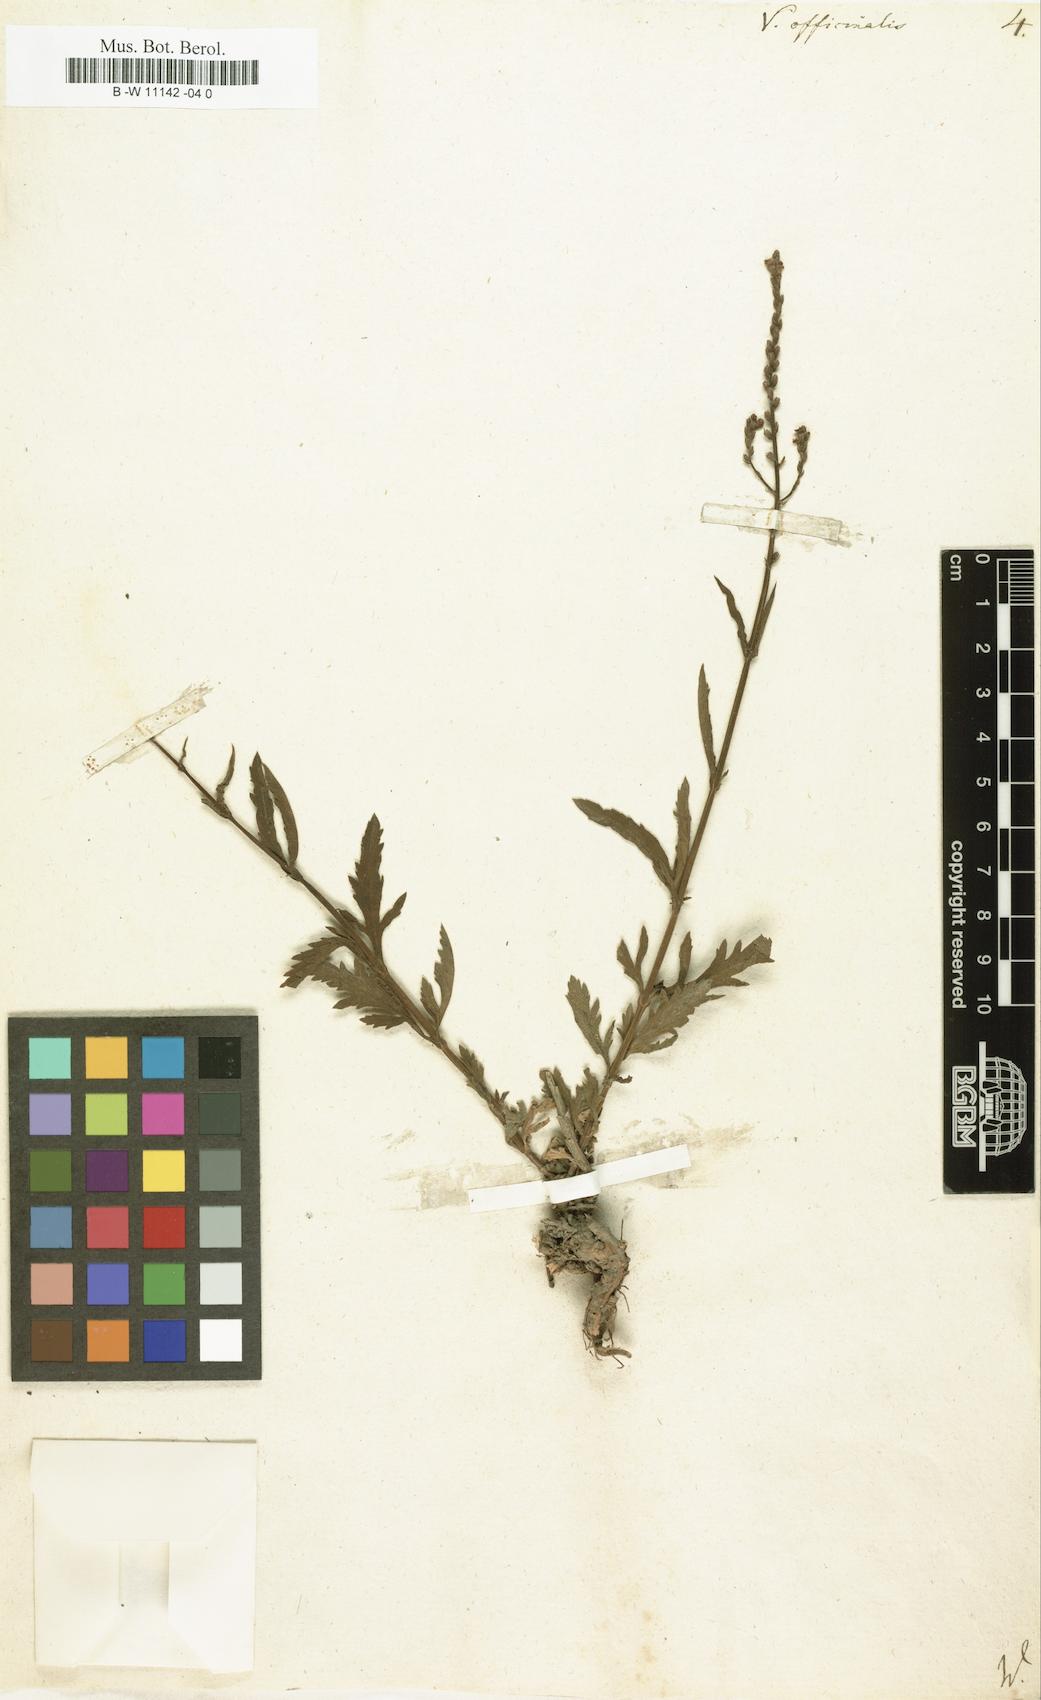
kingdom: Plantae
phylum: Tracheophyta
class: Magnoliopsida
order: Lamiales
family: Verbenaceae
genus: Verbena
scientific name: Verbena officinalis
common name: Vervain
